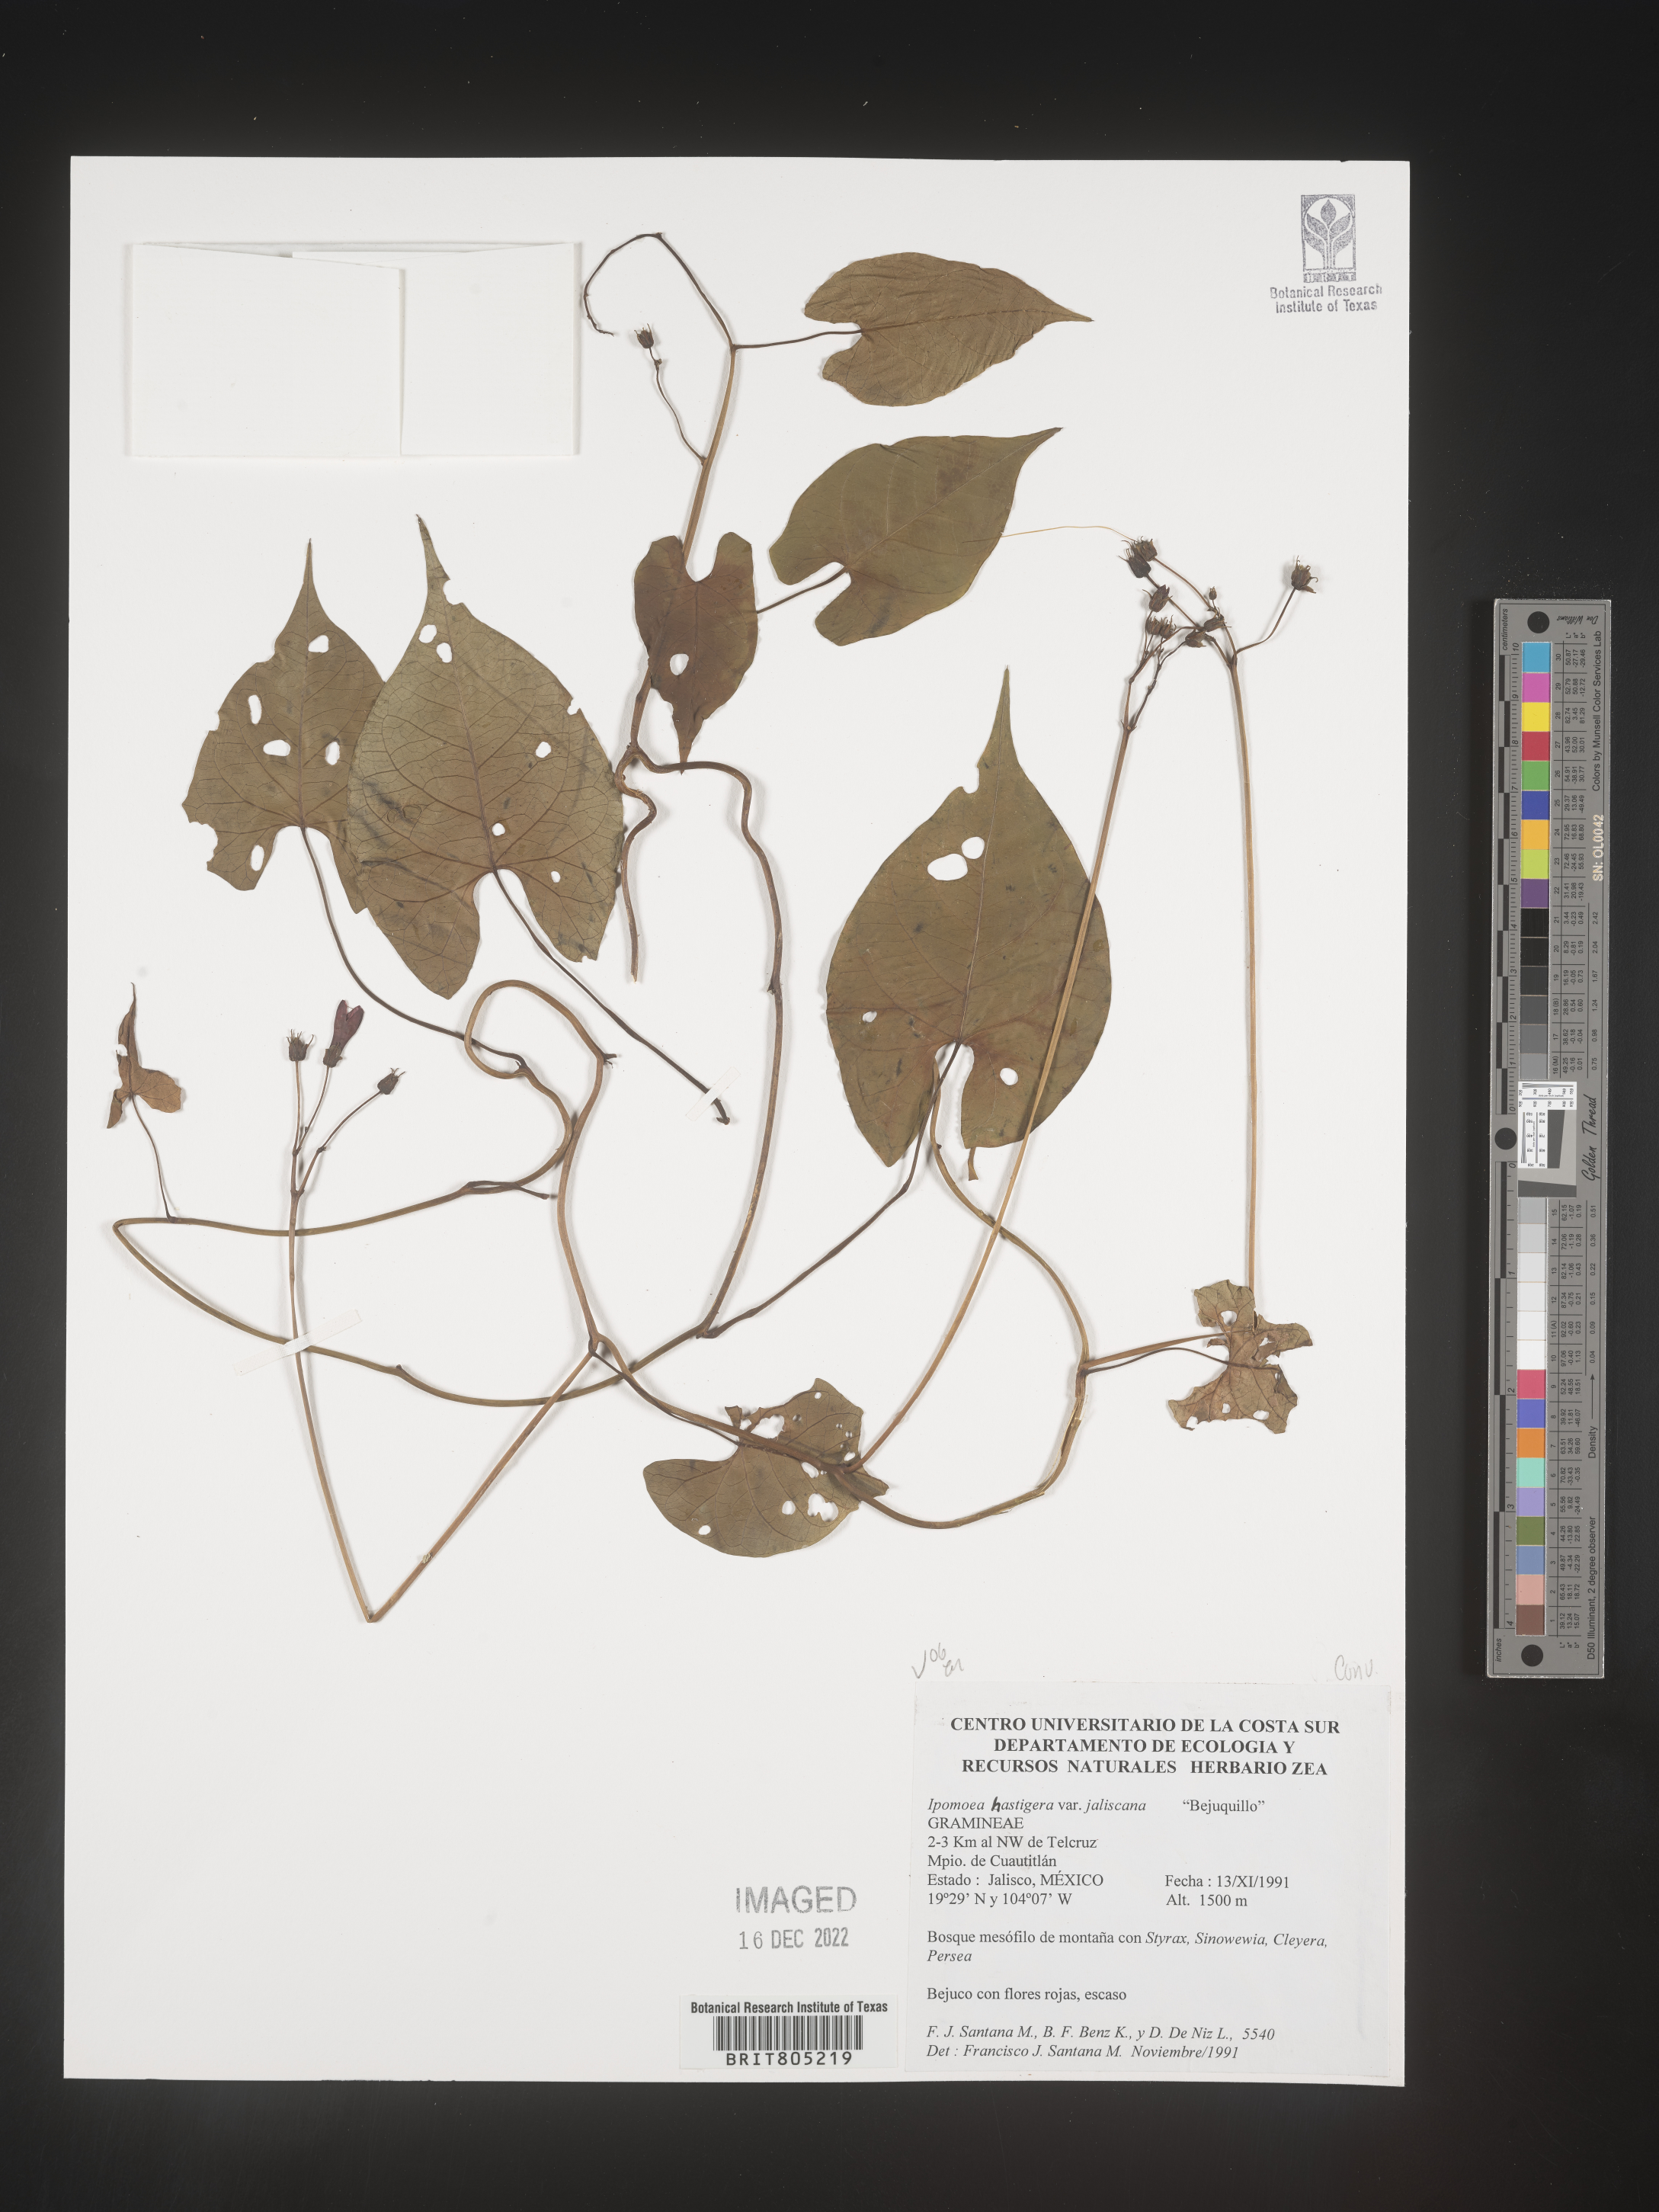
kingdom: Plantae
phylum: Tracheophyta
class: Magnoliopsida
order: Solanales
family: Convolvulaceae
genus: Ipomoea
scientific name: Ipomoea
